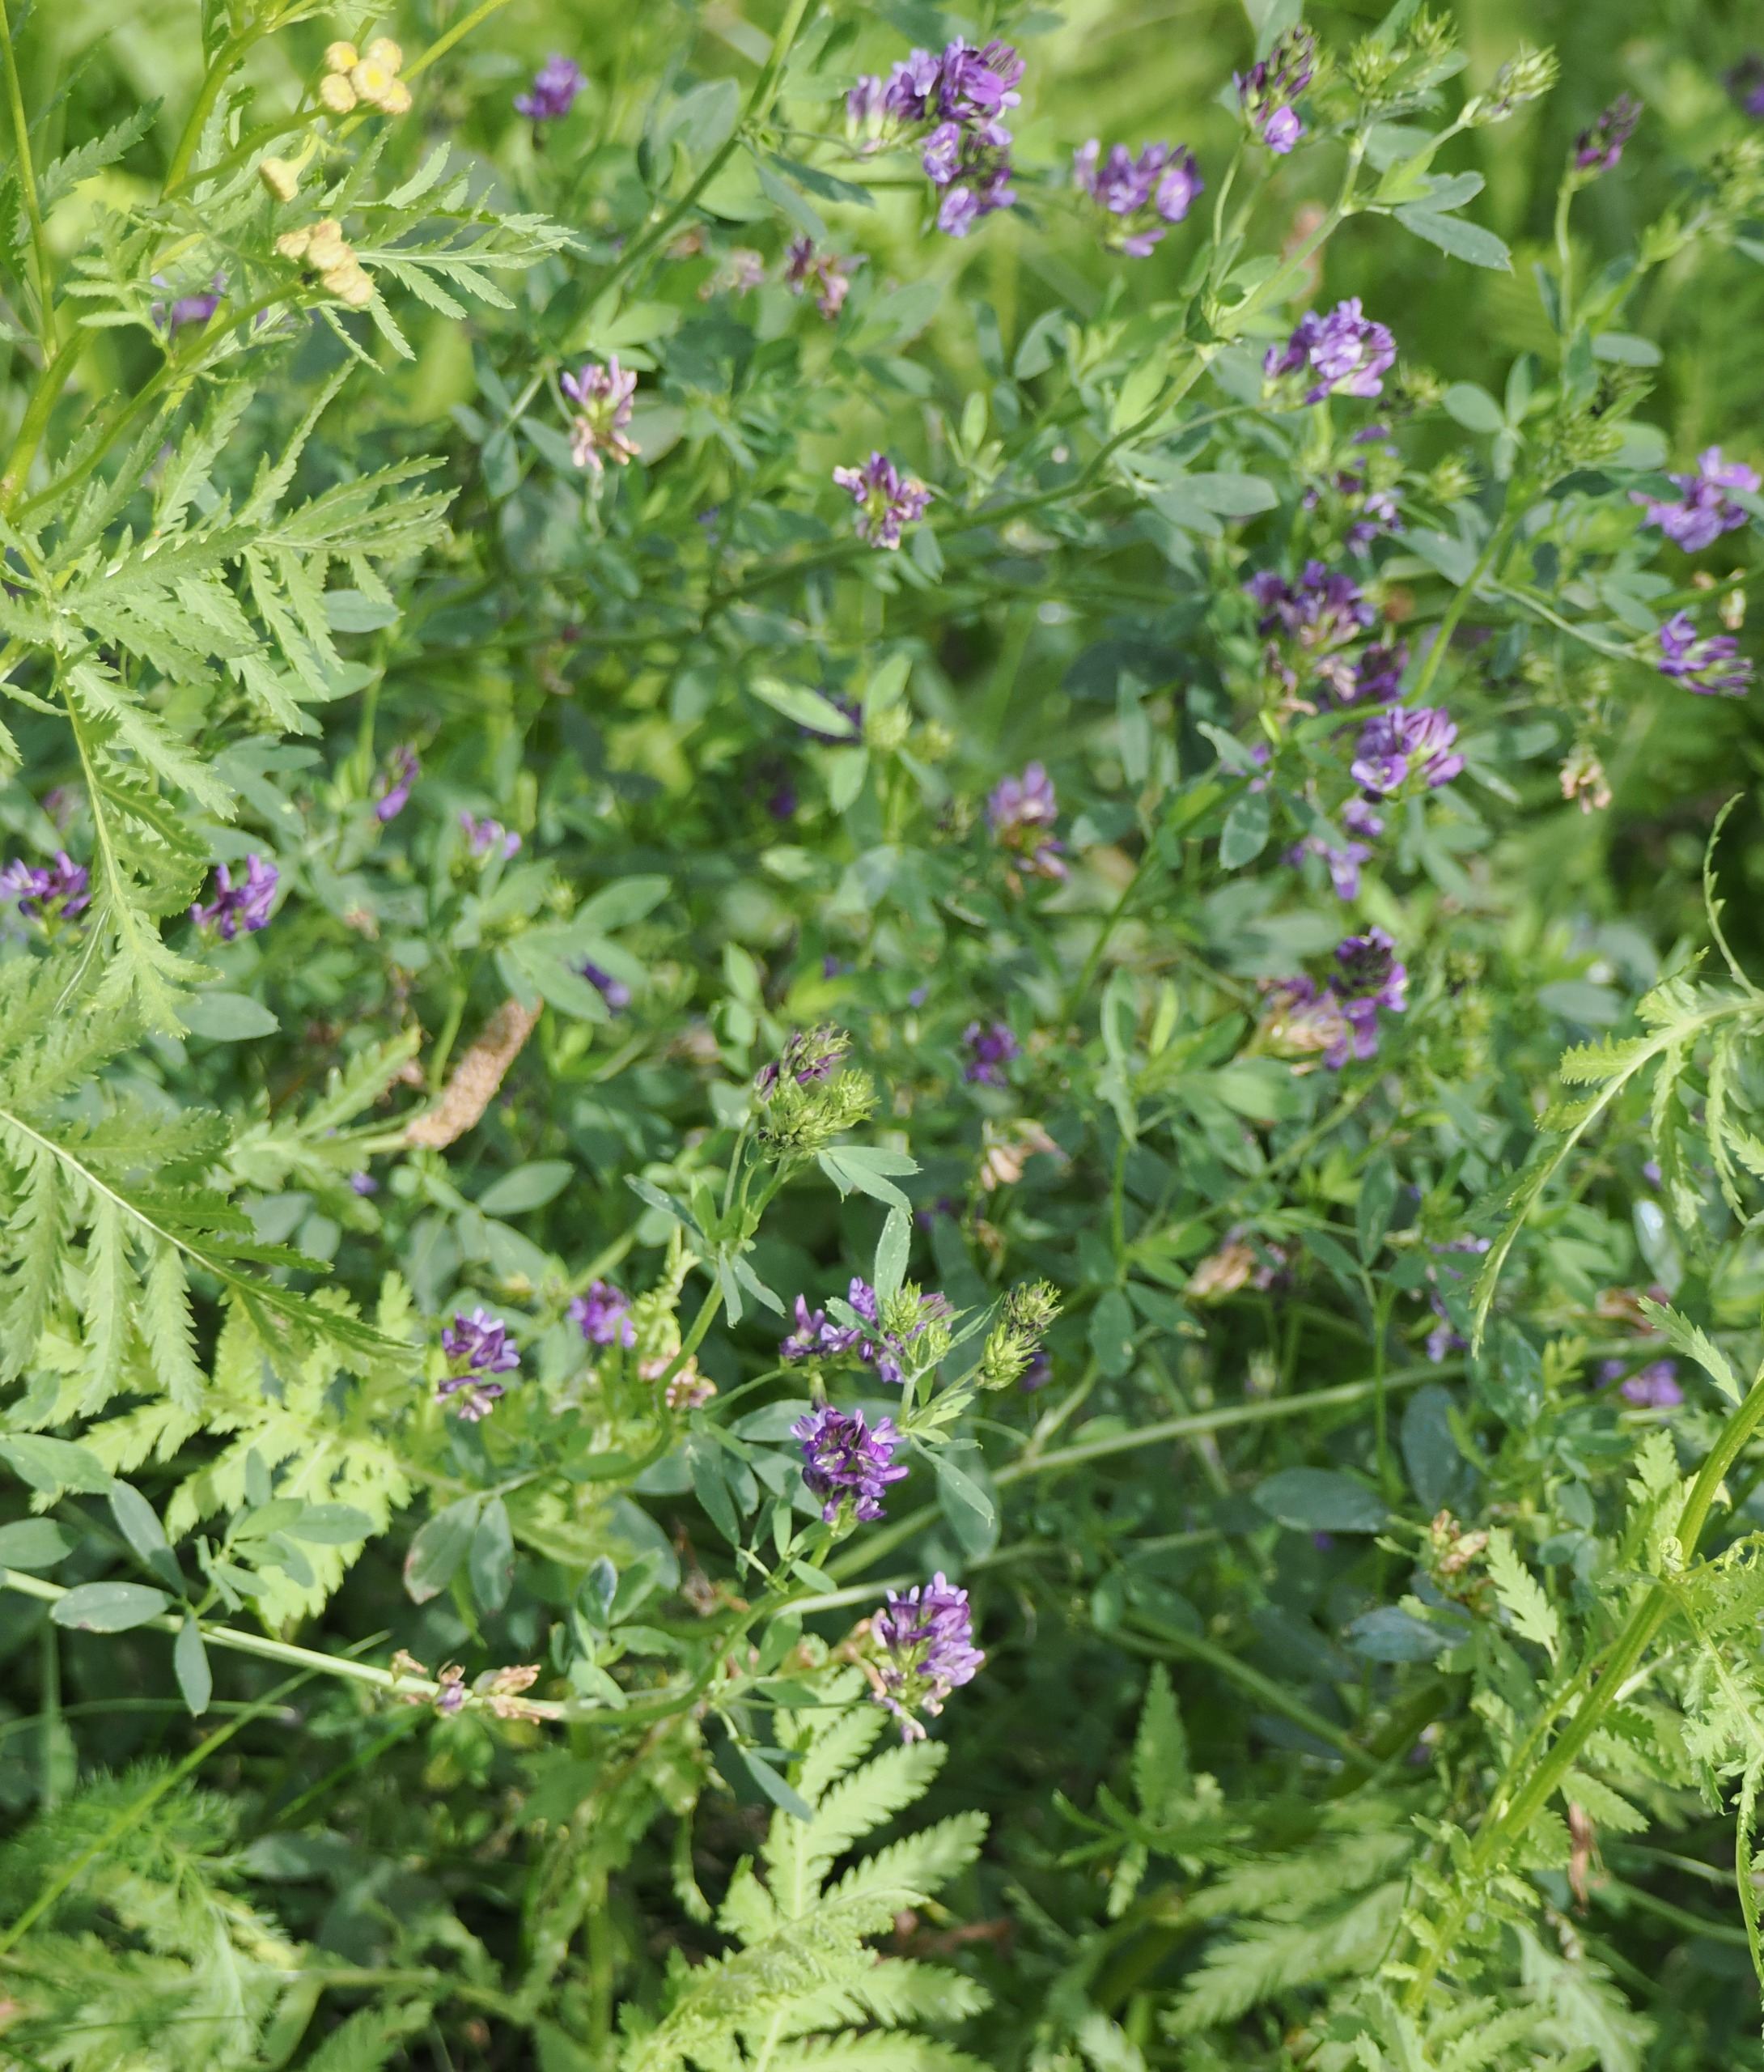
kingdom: Plantae
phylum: Tracheophyta
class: Magnoliopsida
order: Fabales
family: Fabaceae
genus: Medicago
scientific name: Medicago sativa
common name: Foderlucerne
